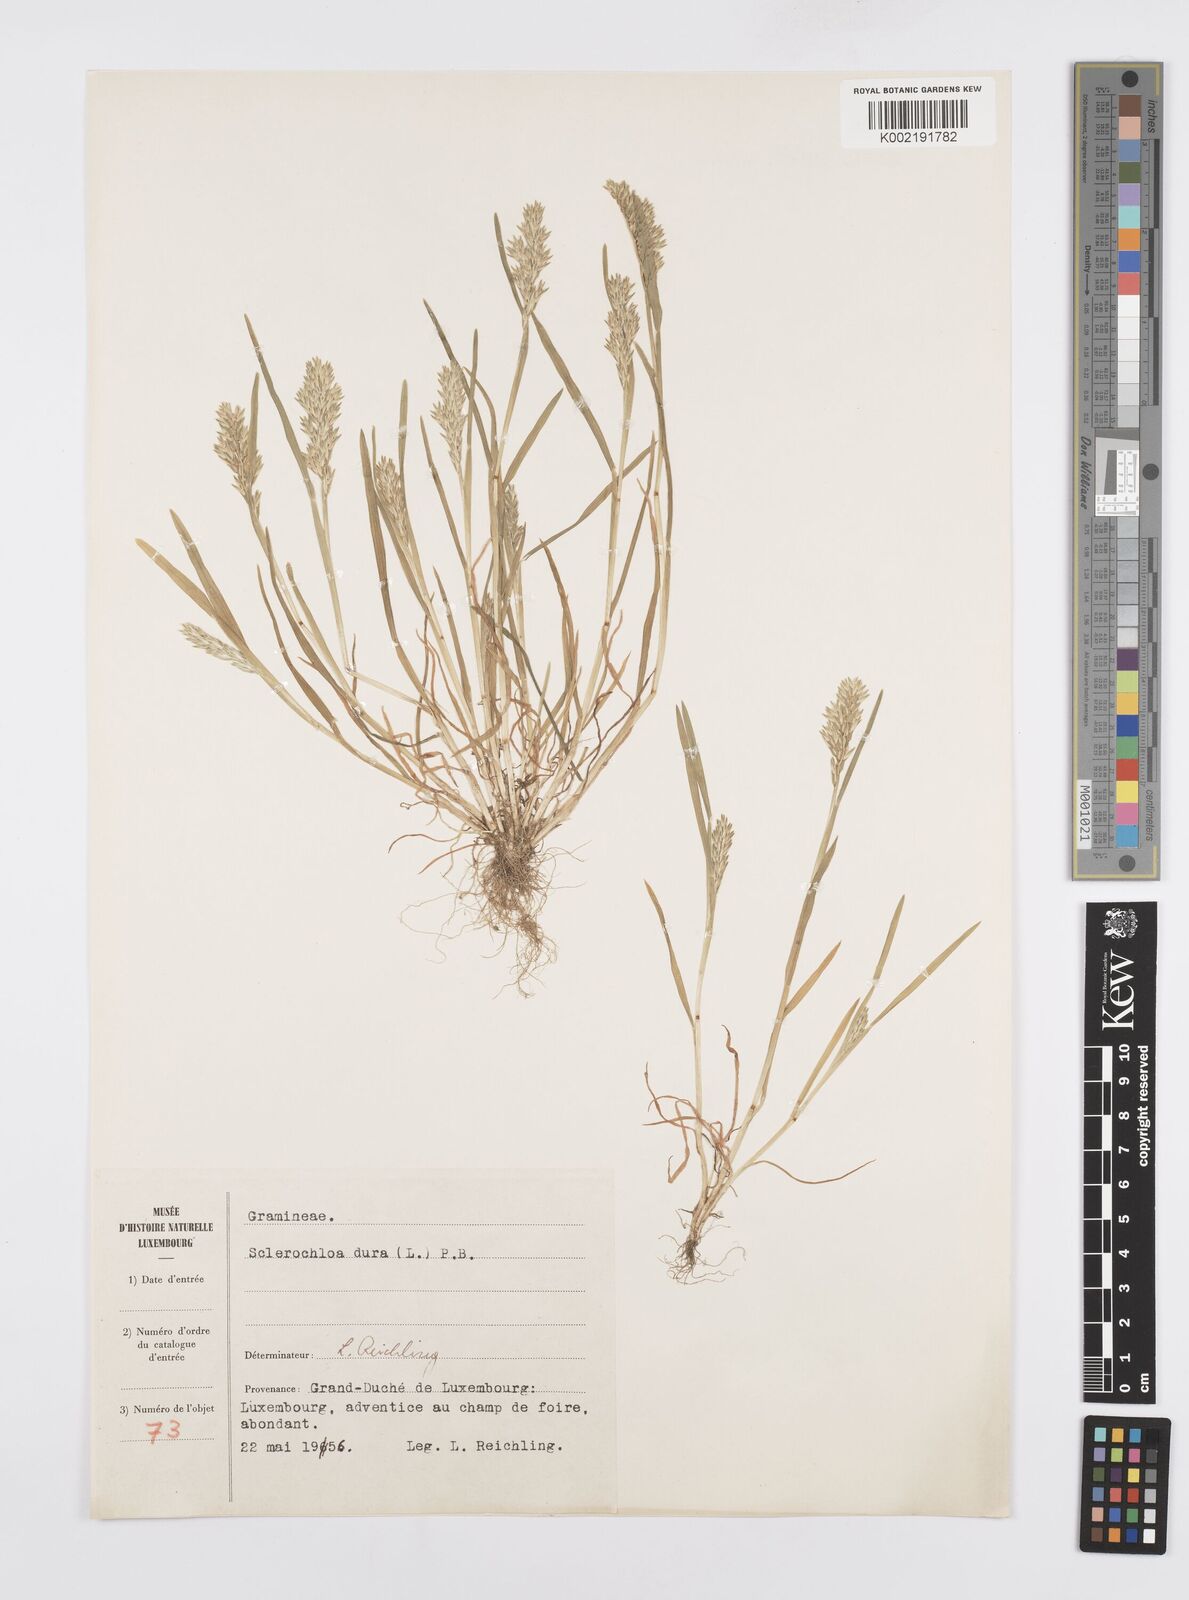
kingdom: Plantae
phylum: Tracheophyta
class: Liliopsida
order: Poales
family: Poaceae
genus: Sclerochloa
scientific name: Sclerochloa dura
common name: Common hardgrass
